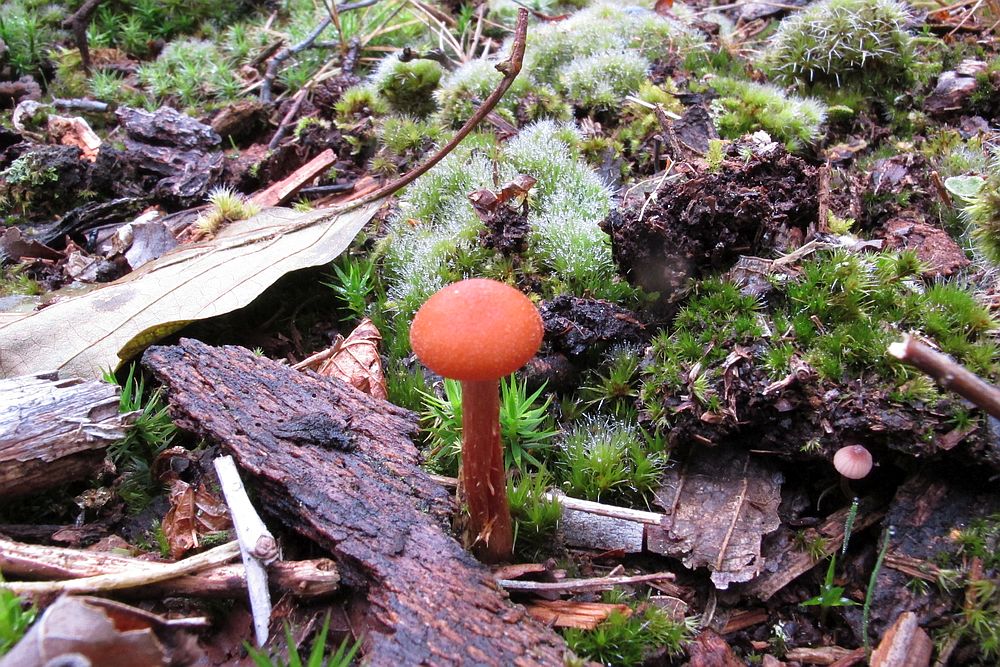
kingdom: Fungi
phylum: Basidiomycota
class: Agaricomycetes
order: Agaricales
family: Hydnangiaceae
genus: Laccaria
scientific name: Laccaria proxima
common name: stor ametysthat
